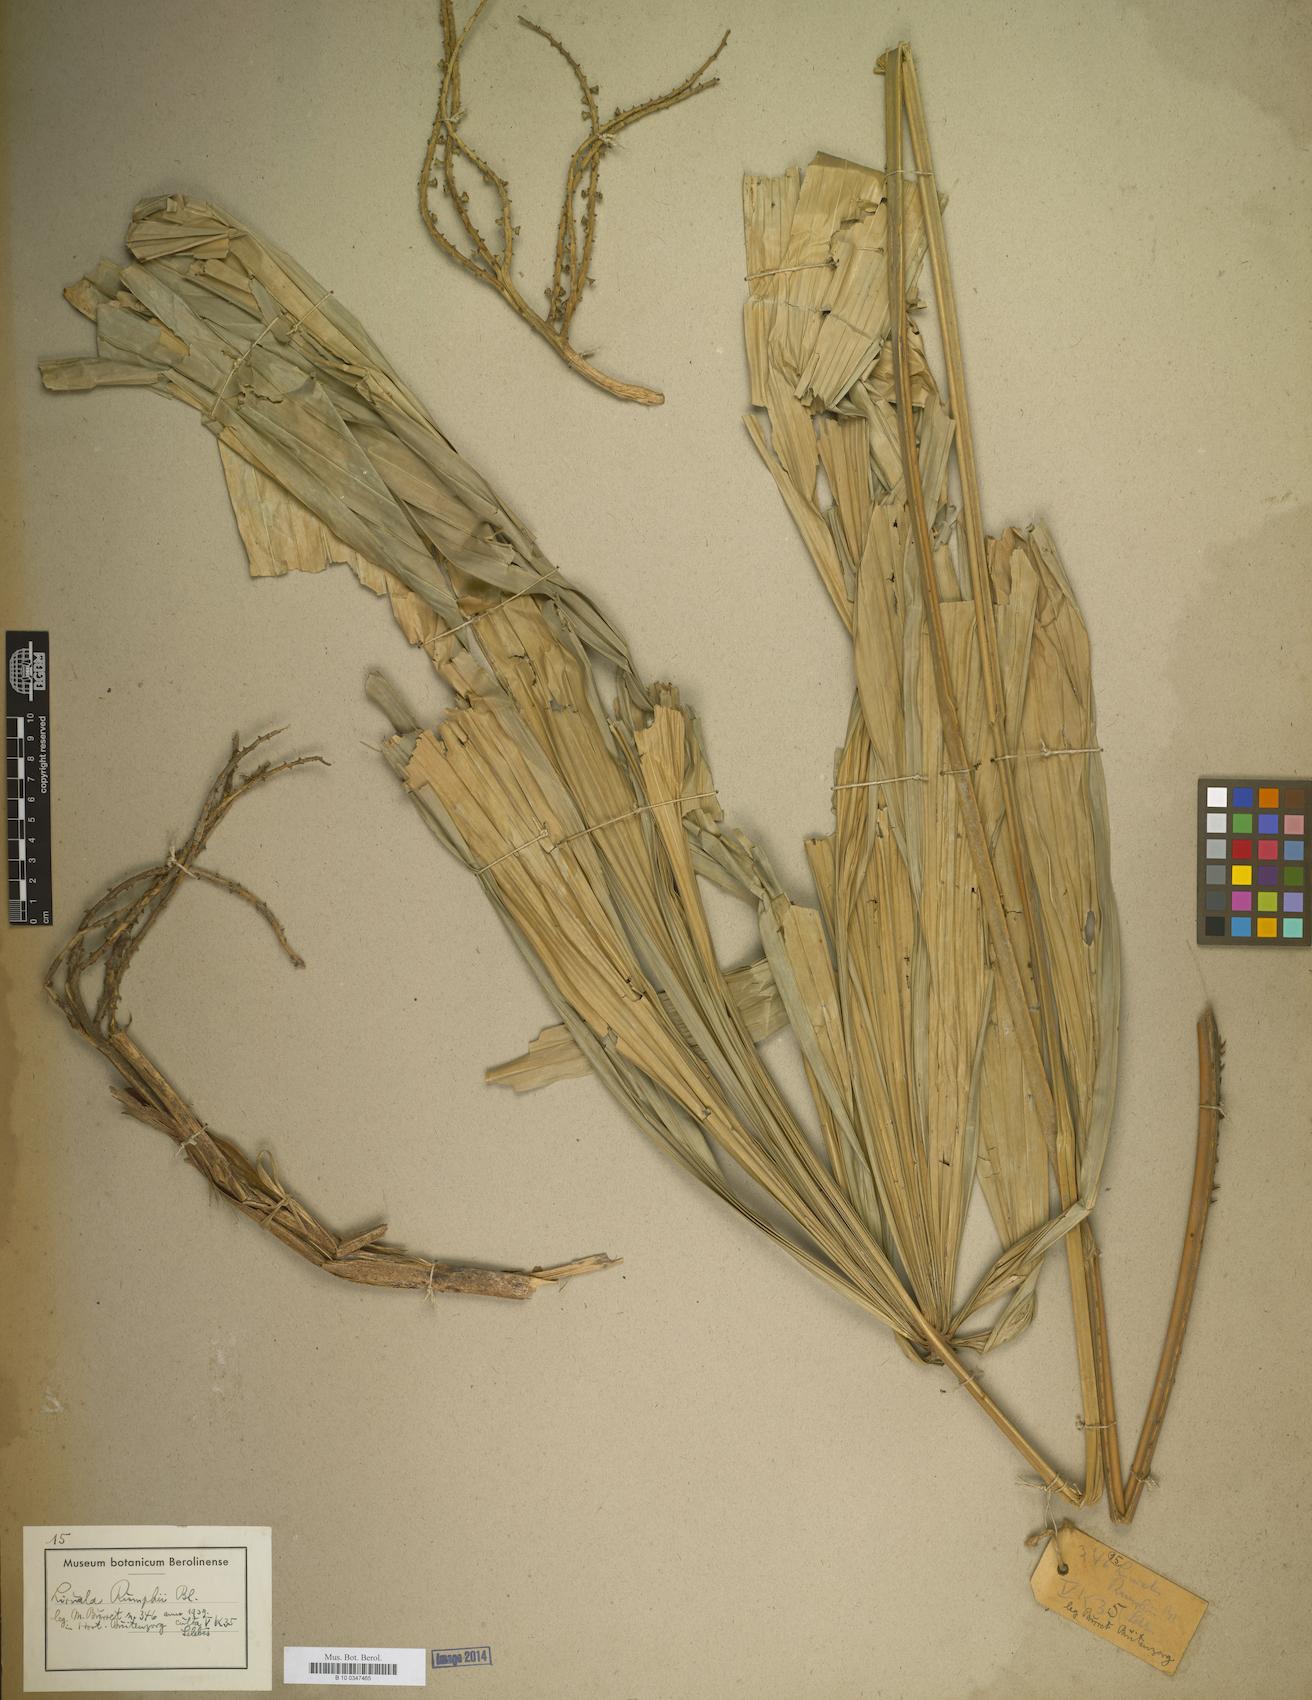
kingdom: Plantae
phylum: Tracheophyta
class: Liliopsida
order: Arecales
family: Arecaceae
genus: Licuala
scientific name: Licuala rumphii
